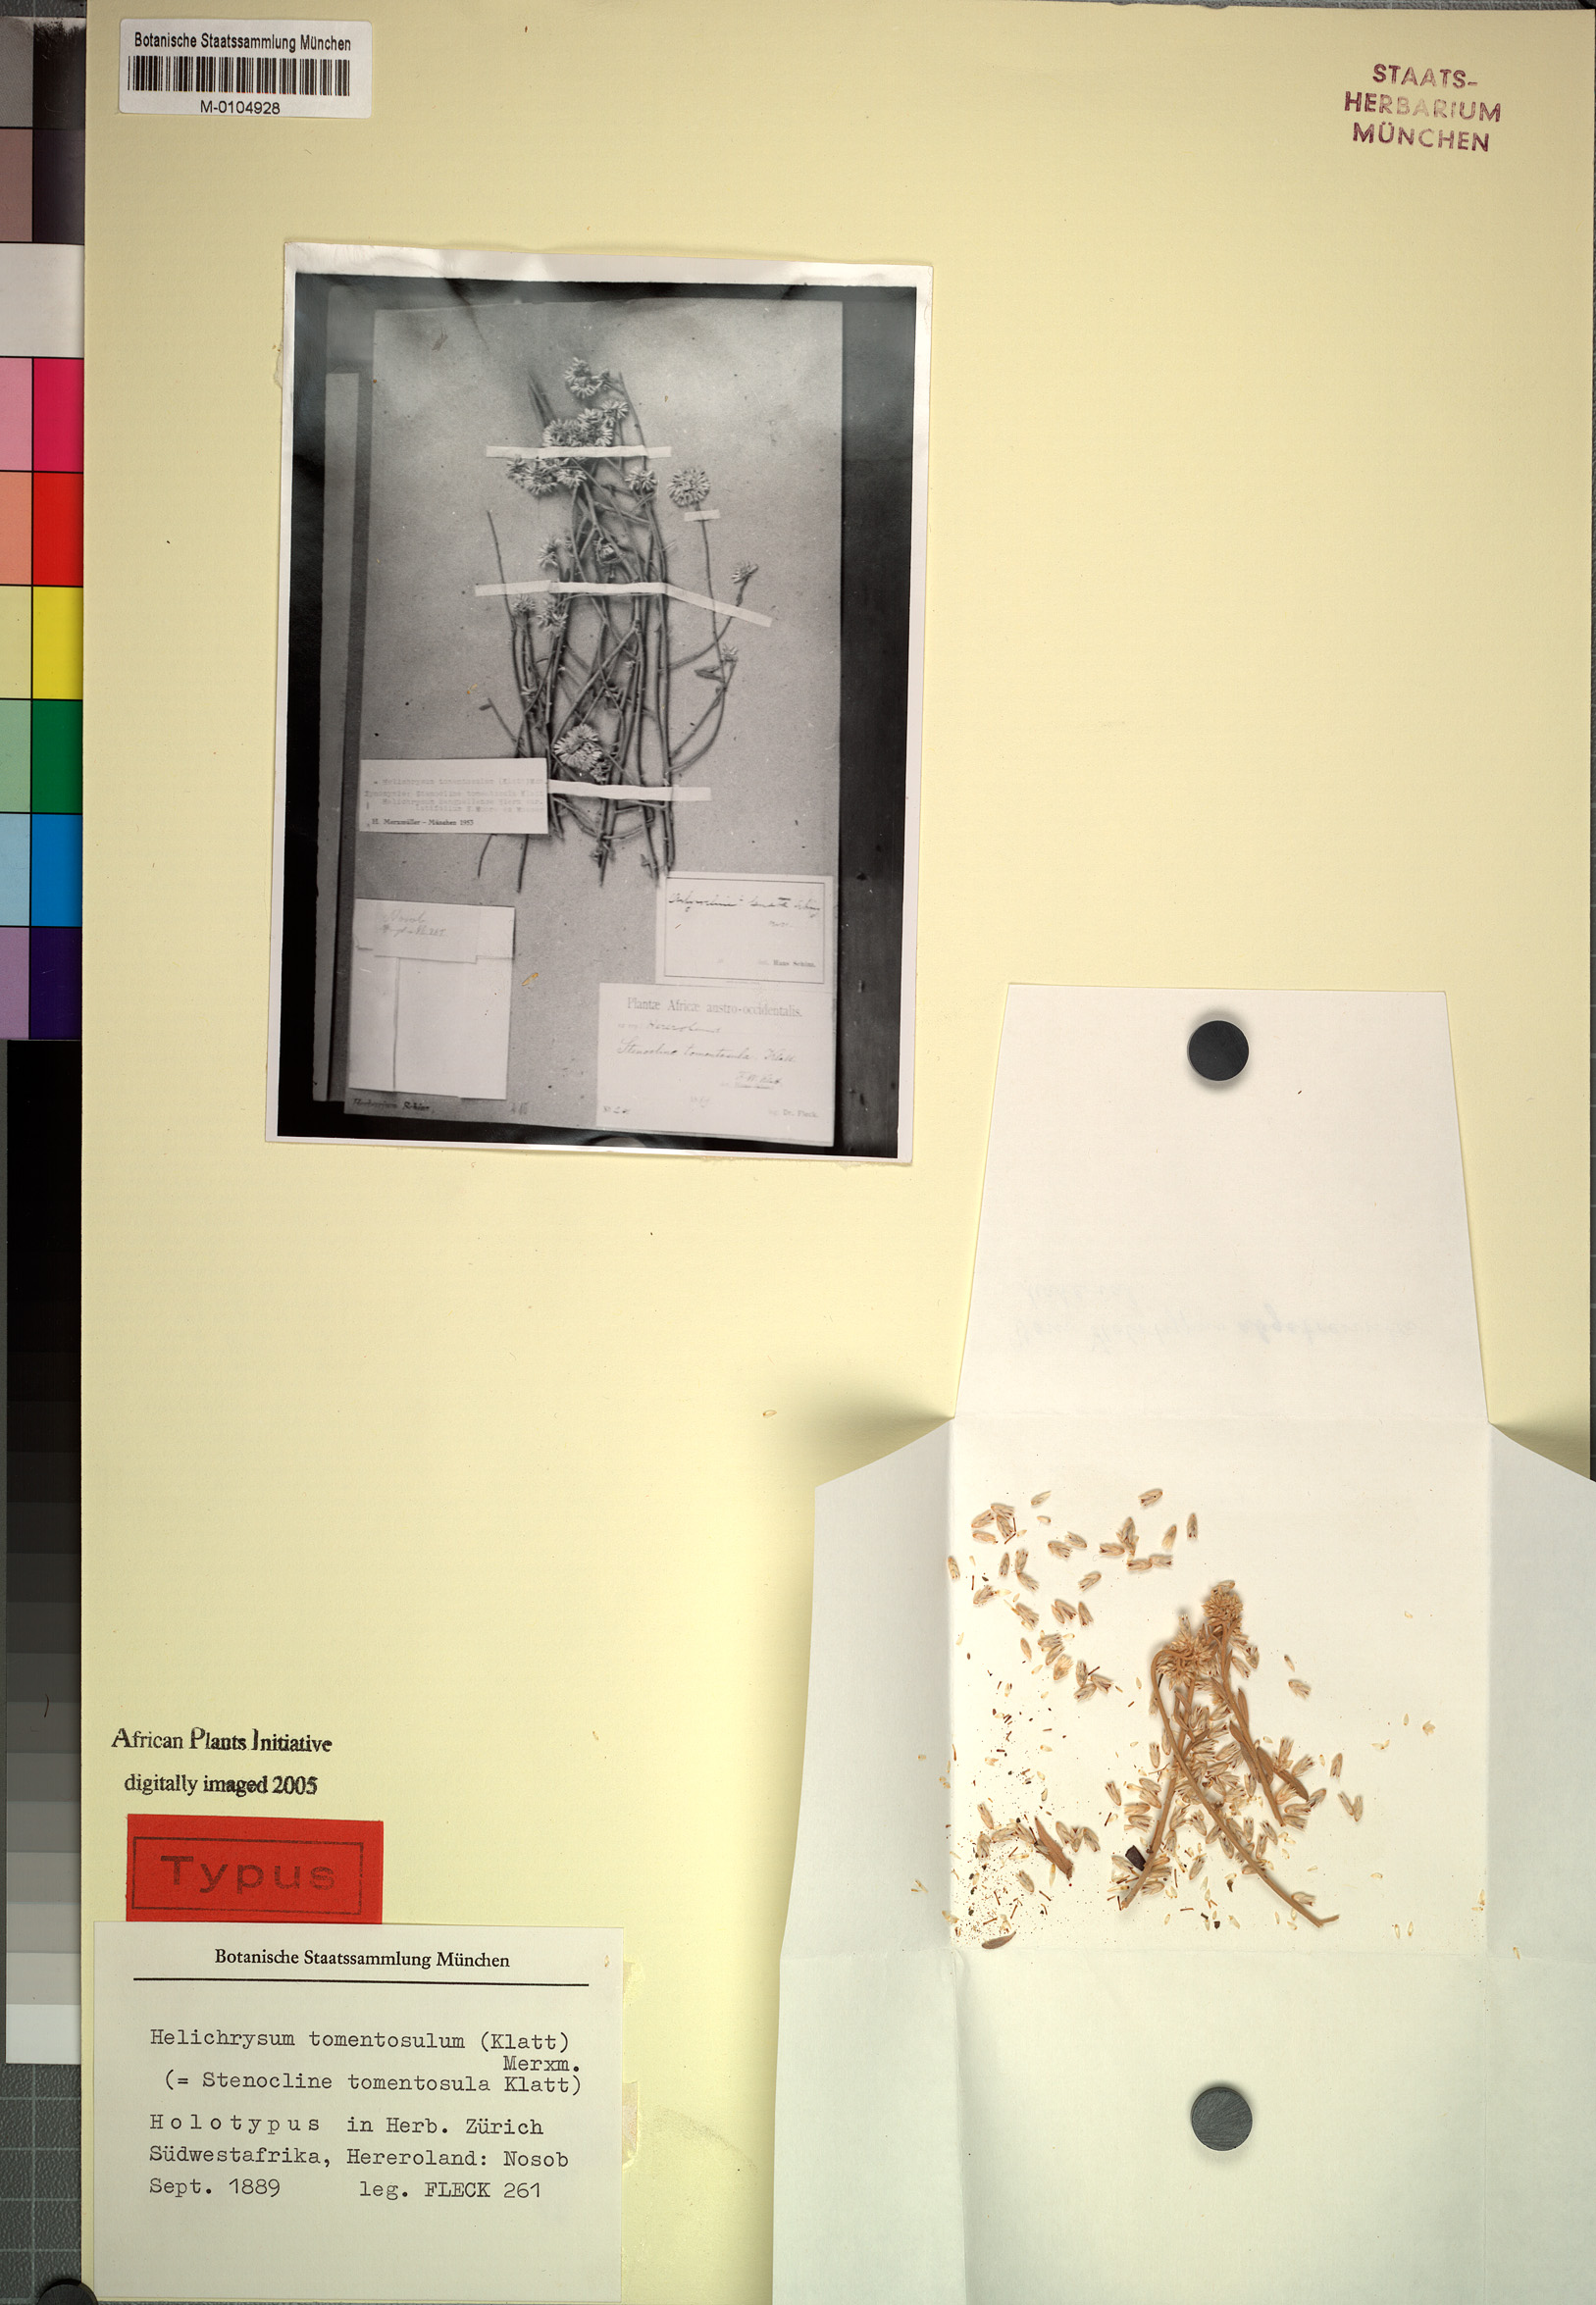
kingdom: Plantae
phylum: Tracheophyta
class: Magnoliopsida
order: Asterales
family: Asteraceae
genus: Helichrysum
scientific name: Helichrysum tomentosulum
